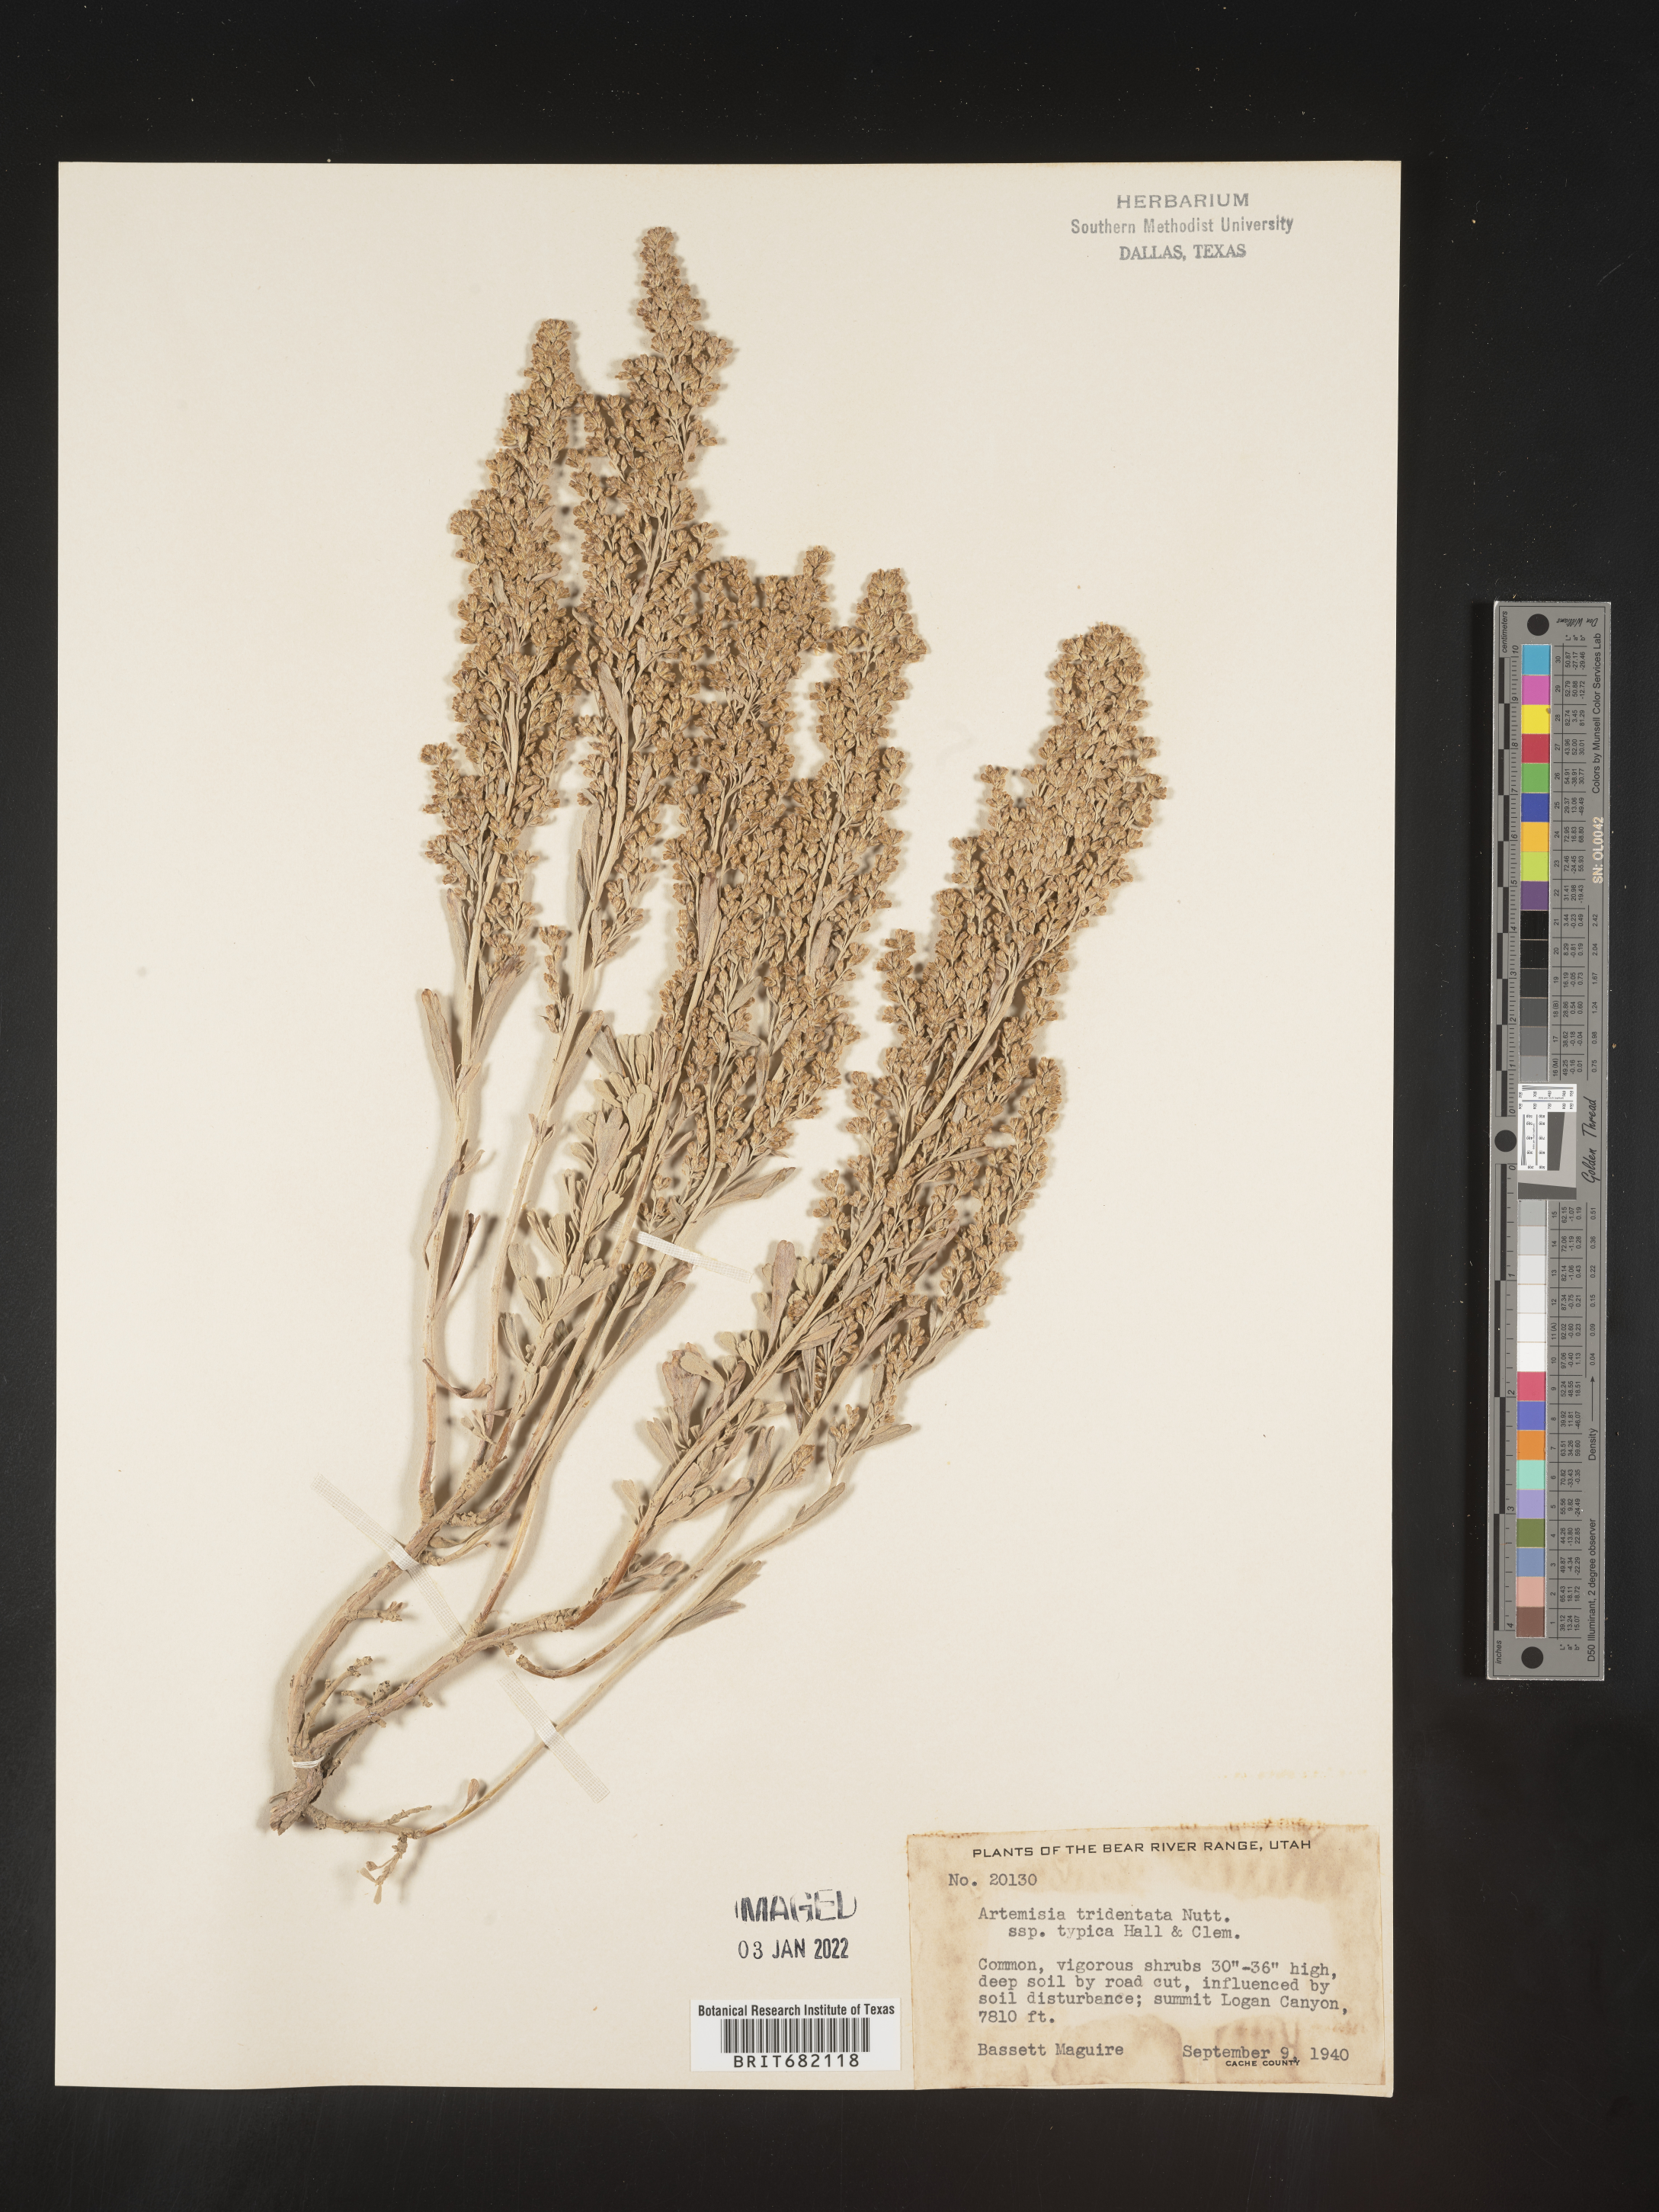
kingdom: Plantae
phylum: Tracheophyta
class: Magnoliopsida
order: Asterales
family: Asteraceae
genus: Artemisia
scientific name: Artemisia tridentata
